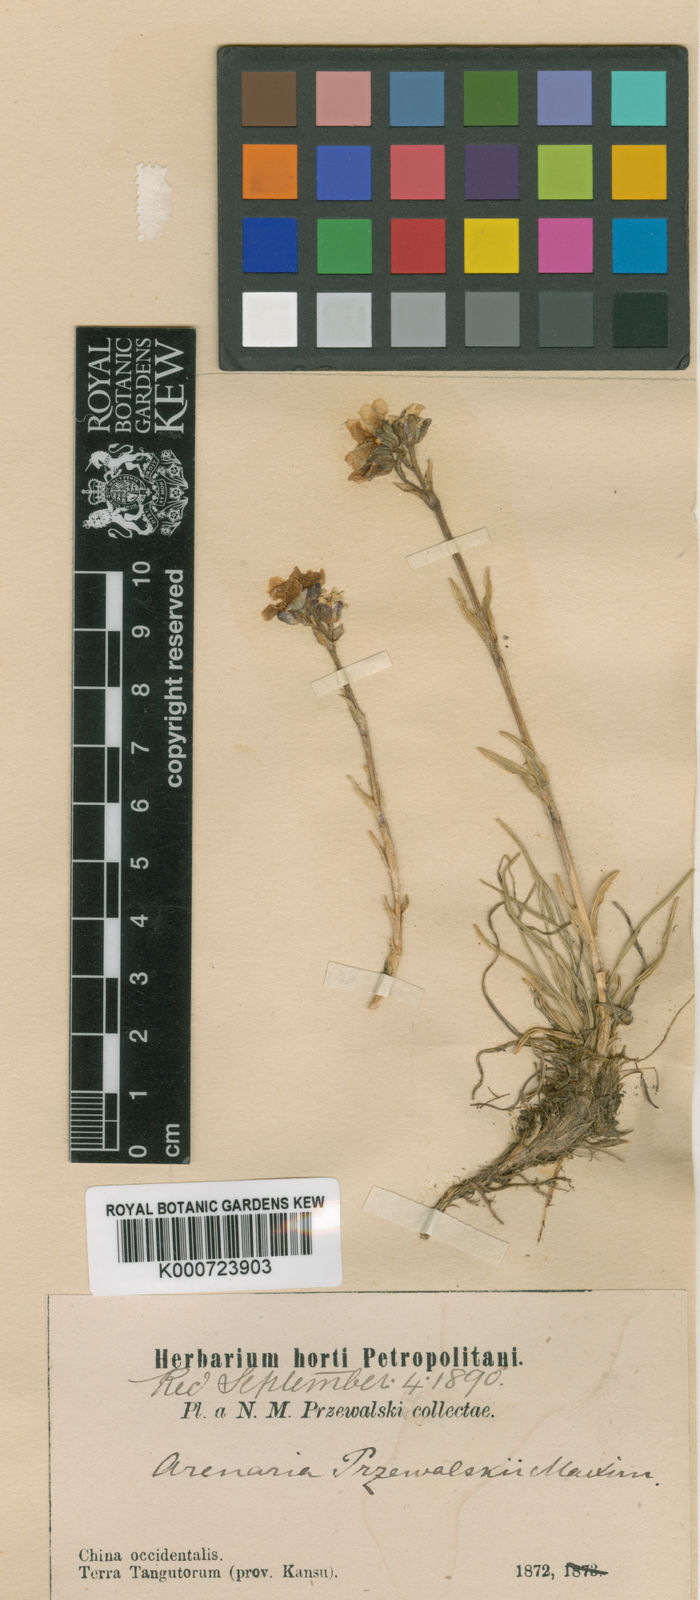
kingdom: Plantae
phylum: Tracheophyta
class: Magnoliopsida
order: Caryophyllales
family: Caryophyllaceae
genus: Eremogone
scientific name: Eremogone przewalskii
